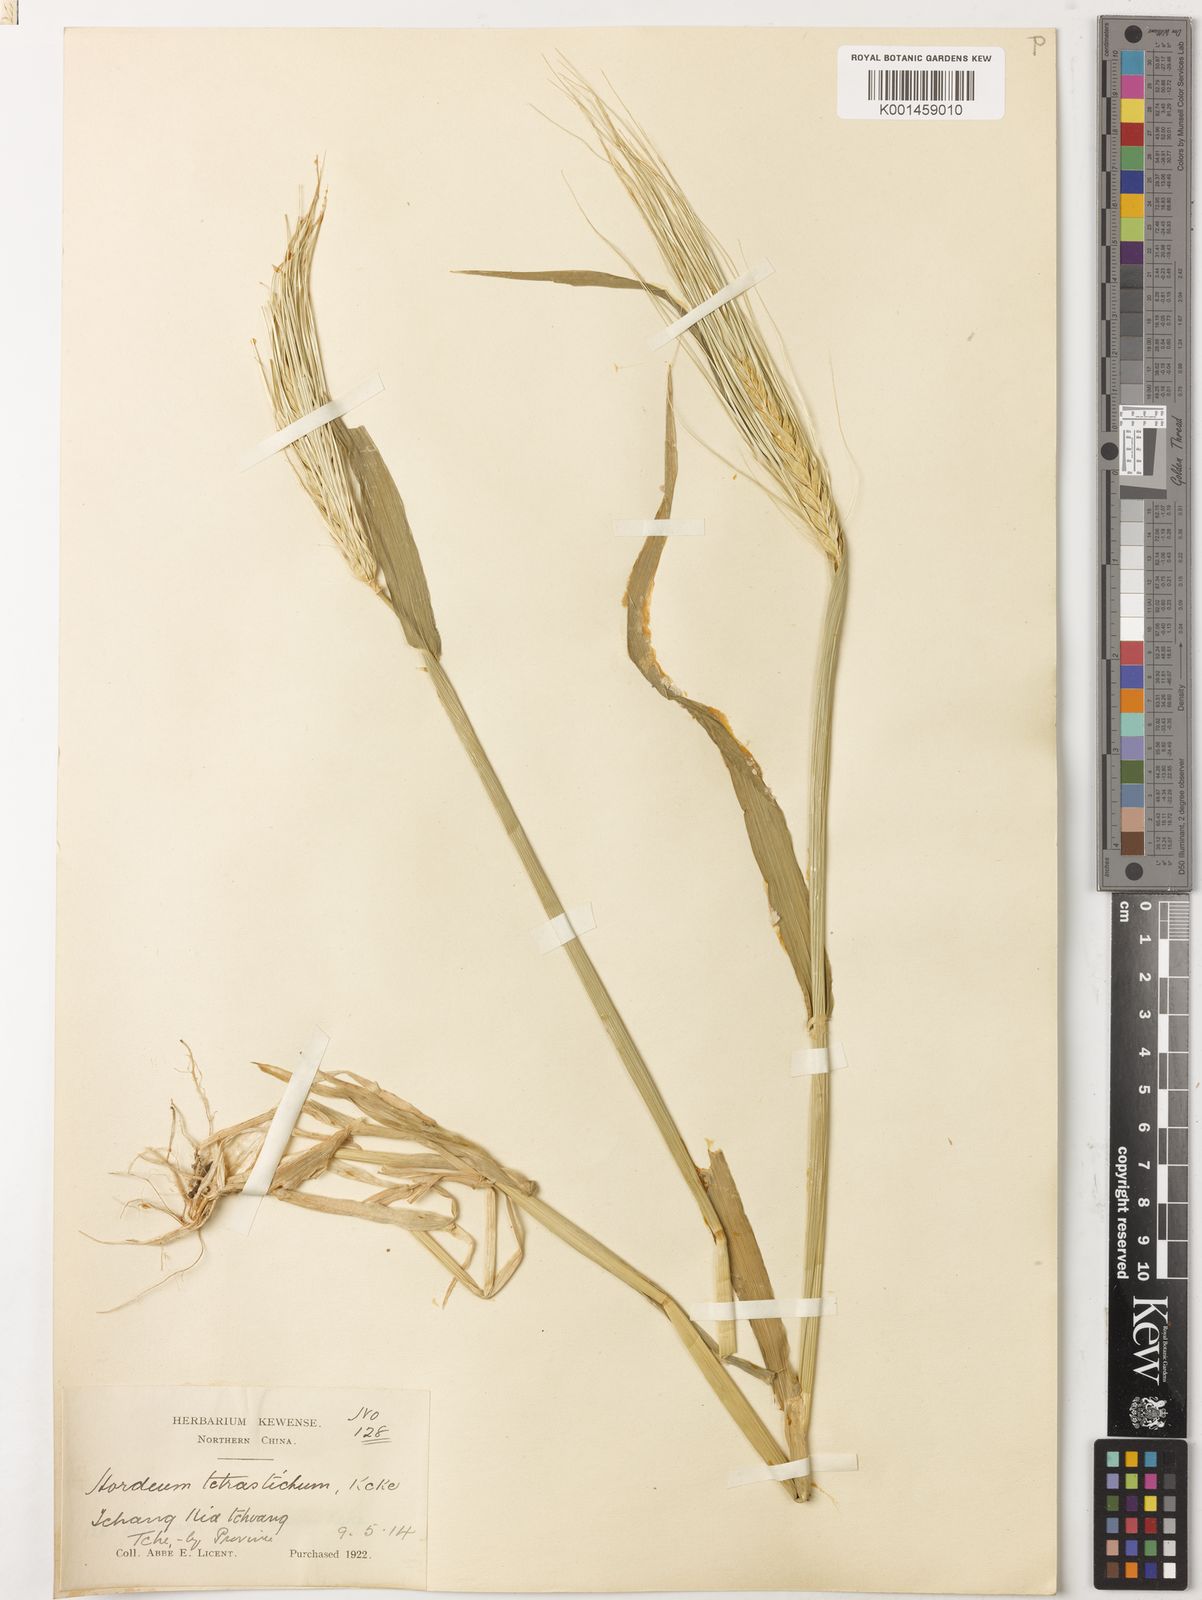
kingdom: Plantae
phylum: Tracheophyta
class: Liliopsida
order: Poales
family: Poaceae
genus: Hordeum
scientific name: Hordeum vulgare
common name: Common barley
